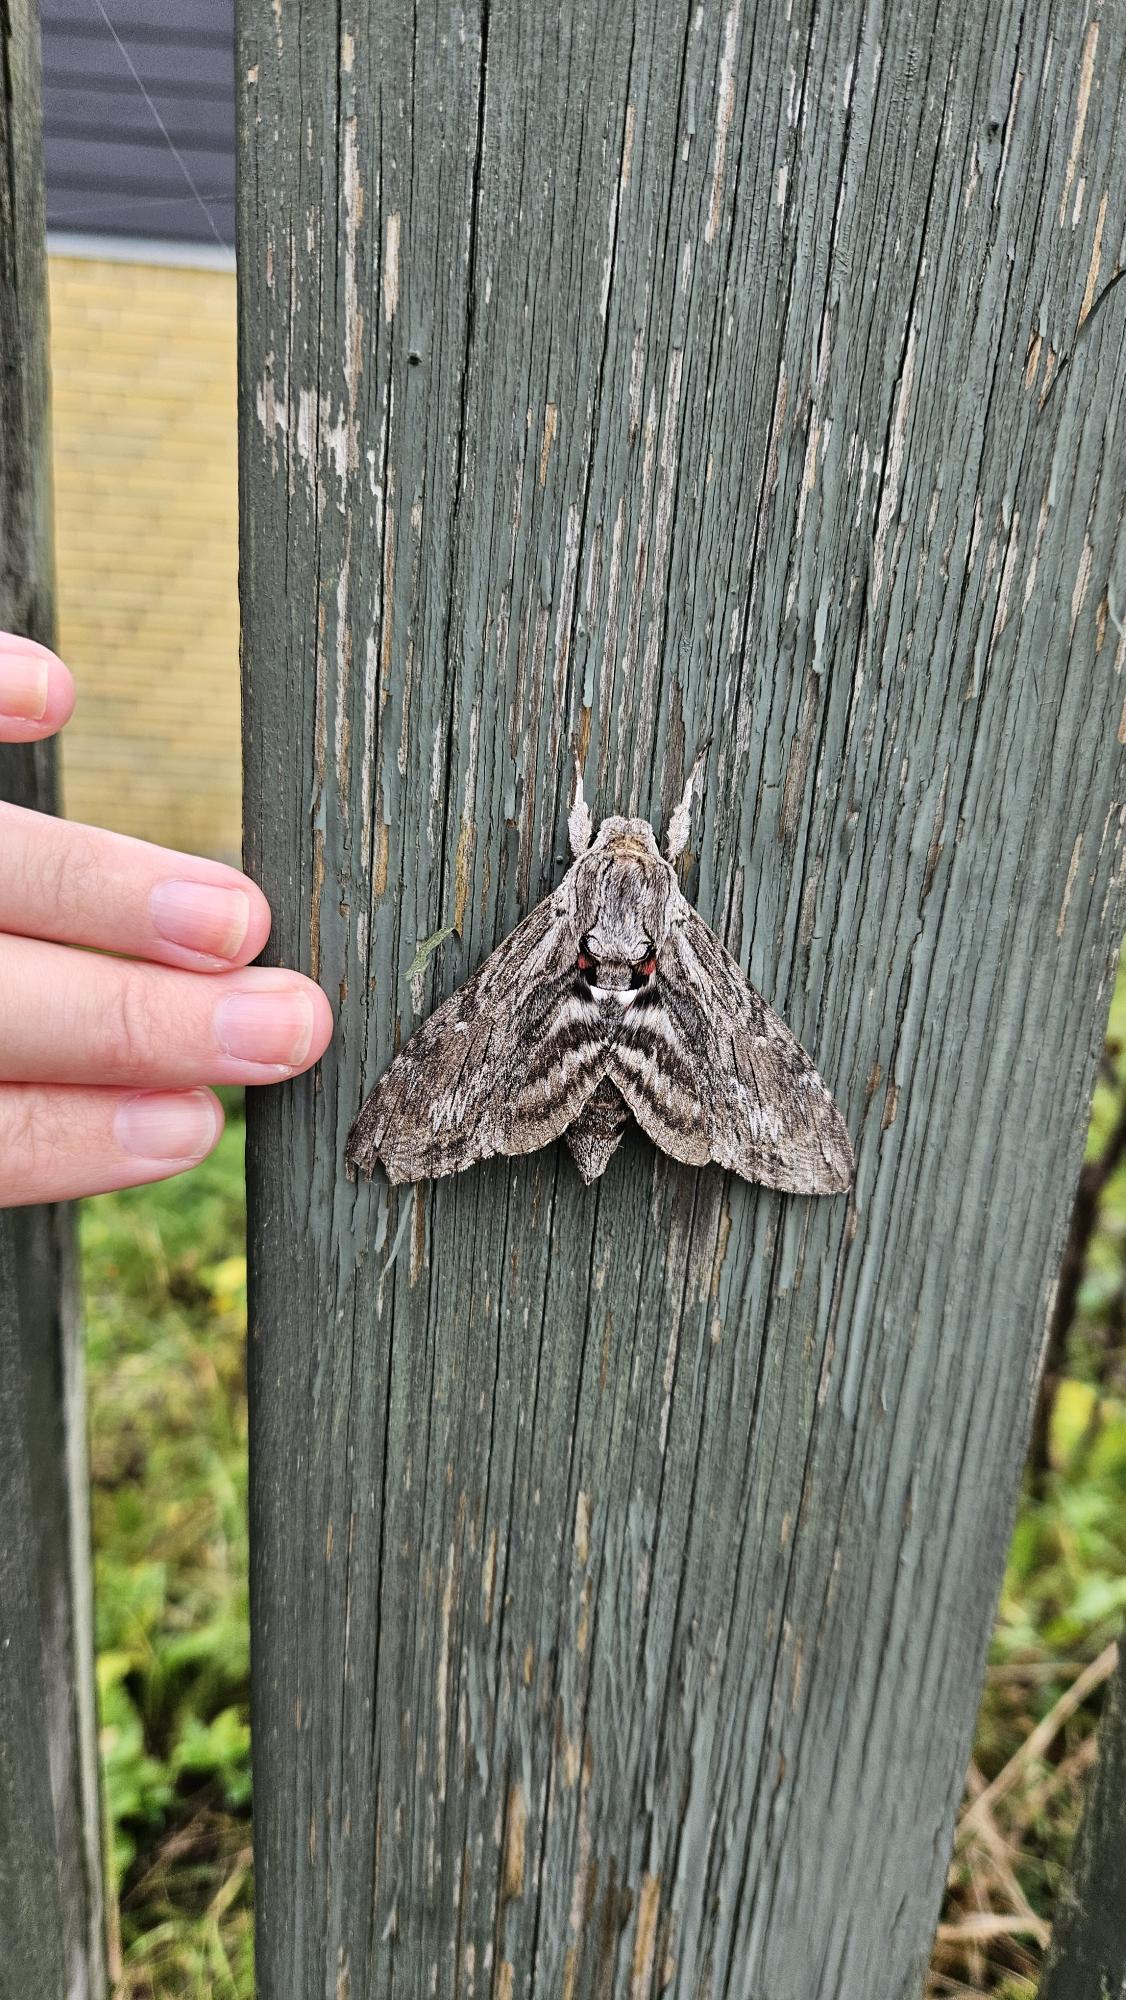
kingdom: Animalia
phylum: Arthropoda
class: Insecta
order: Lepidoptera
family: Sphingidae
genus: Agrius
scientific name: Agrius convolvuli
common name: Snerlesværmer
